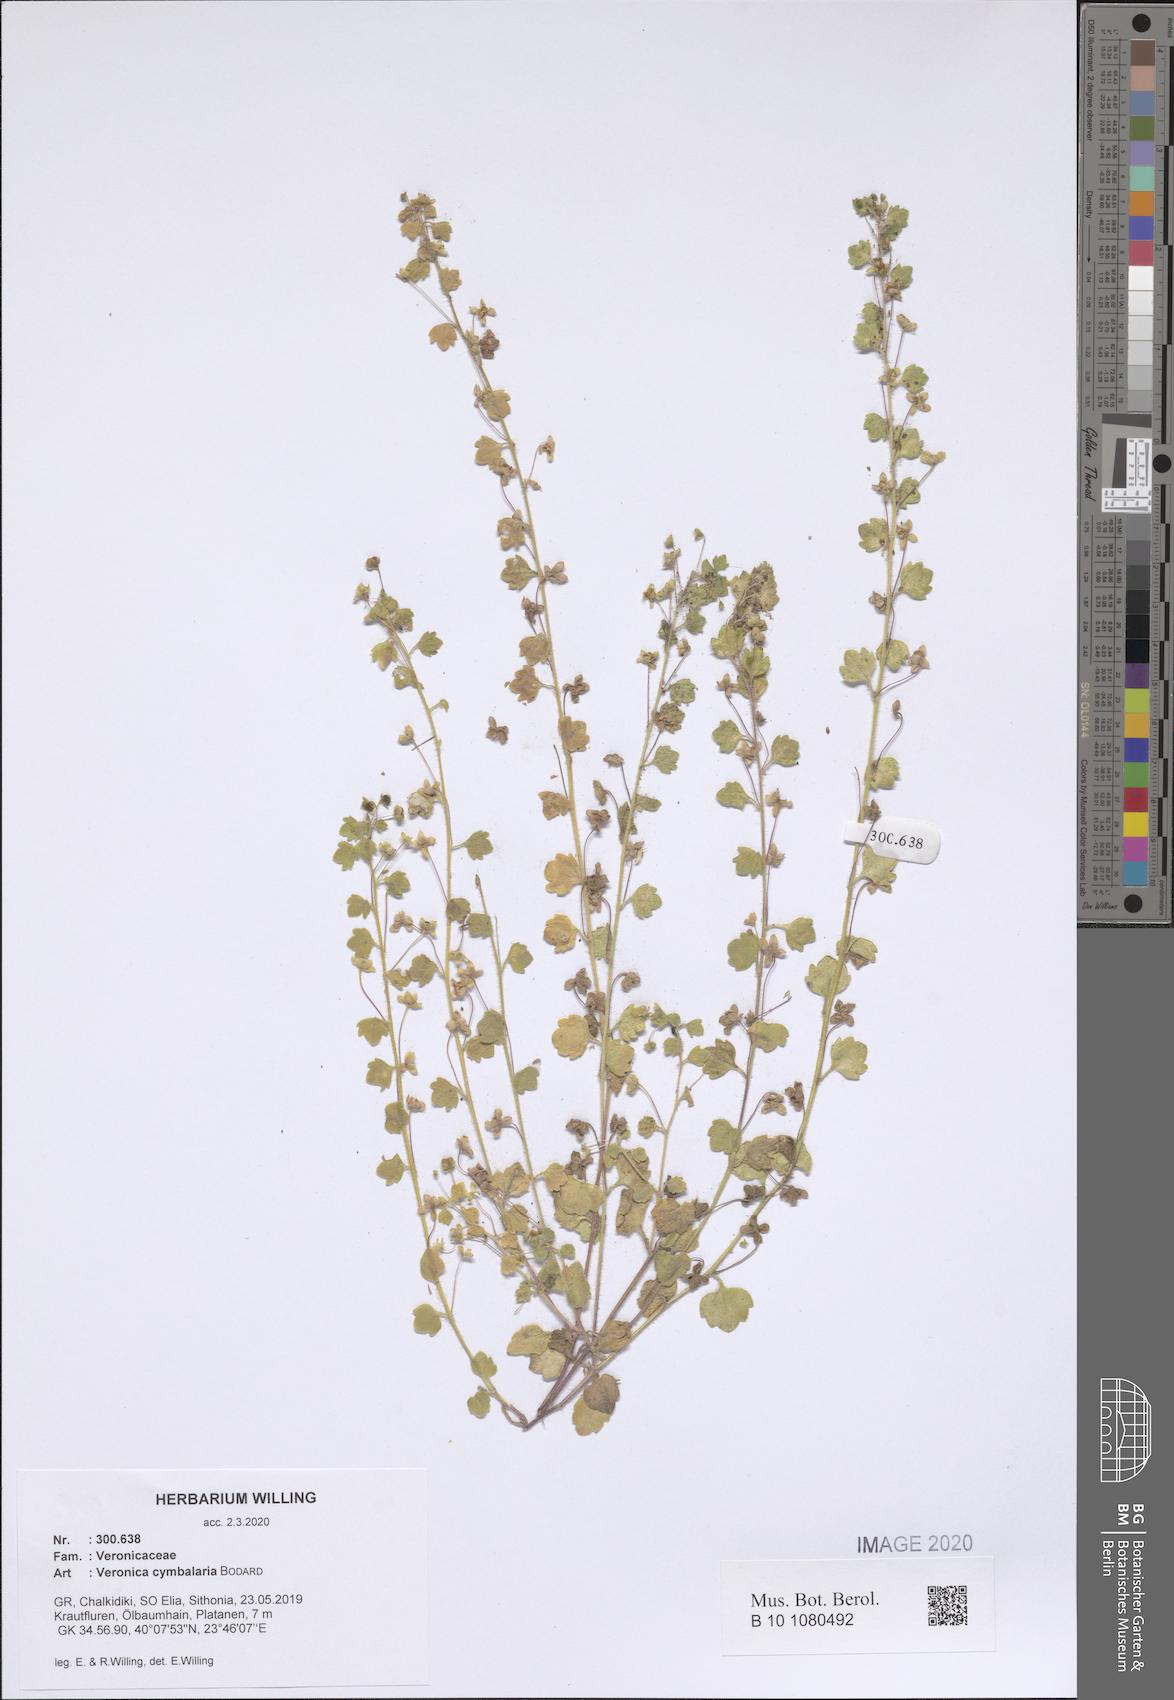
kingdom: Plantae
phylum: Tracheophyta
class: Magnoliopsida
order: Lamiales
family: Plantaginaceae
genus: Veronica
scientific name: Veronica cymbalaria
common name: Pale speedwell
